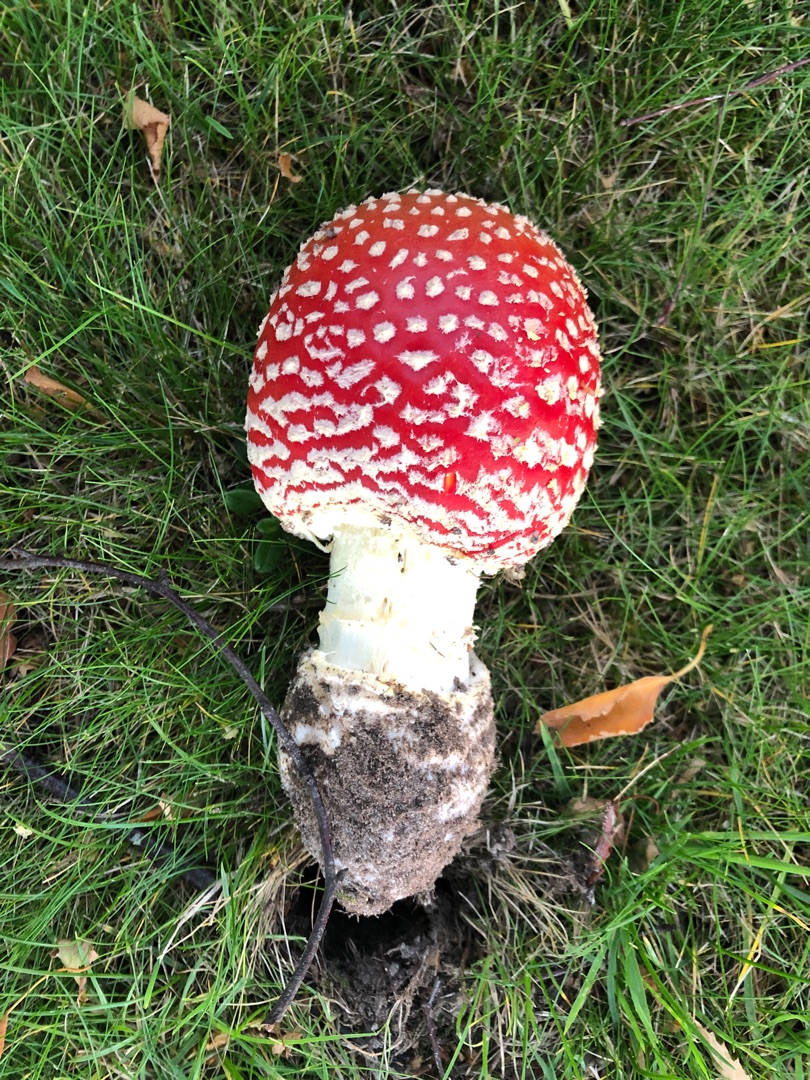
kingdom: Fungi
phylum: Basidiomycota
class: Agaricomycetes
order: Agaricales
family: Amanitaceae
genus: Amanita
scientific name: Amanita muscaria
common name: Rød fluesvamp
